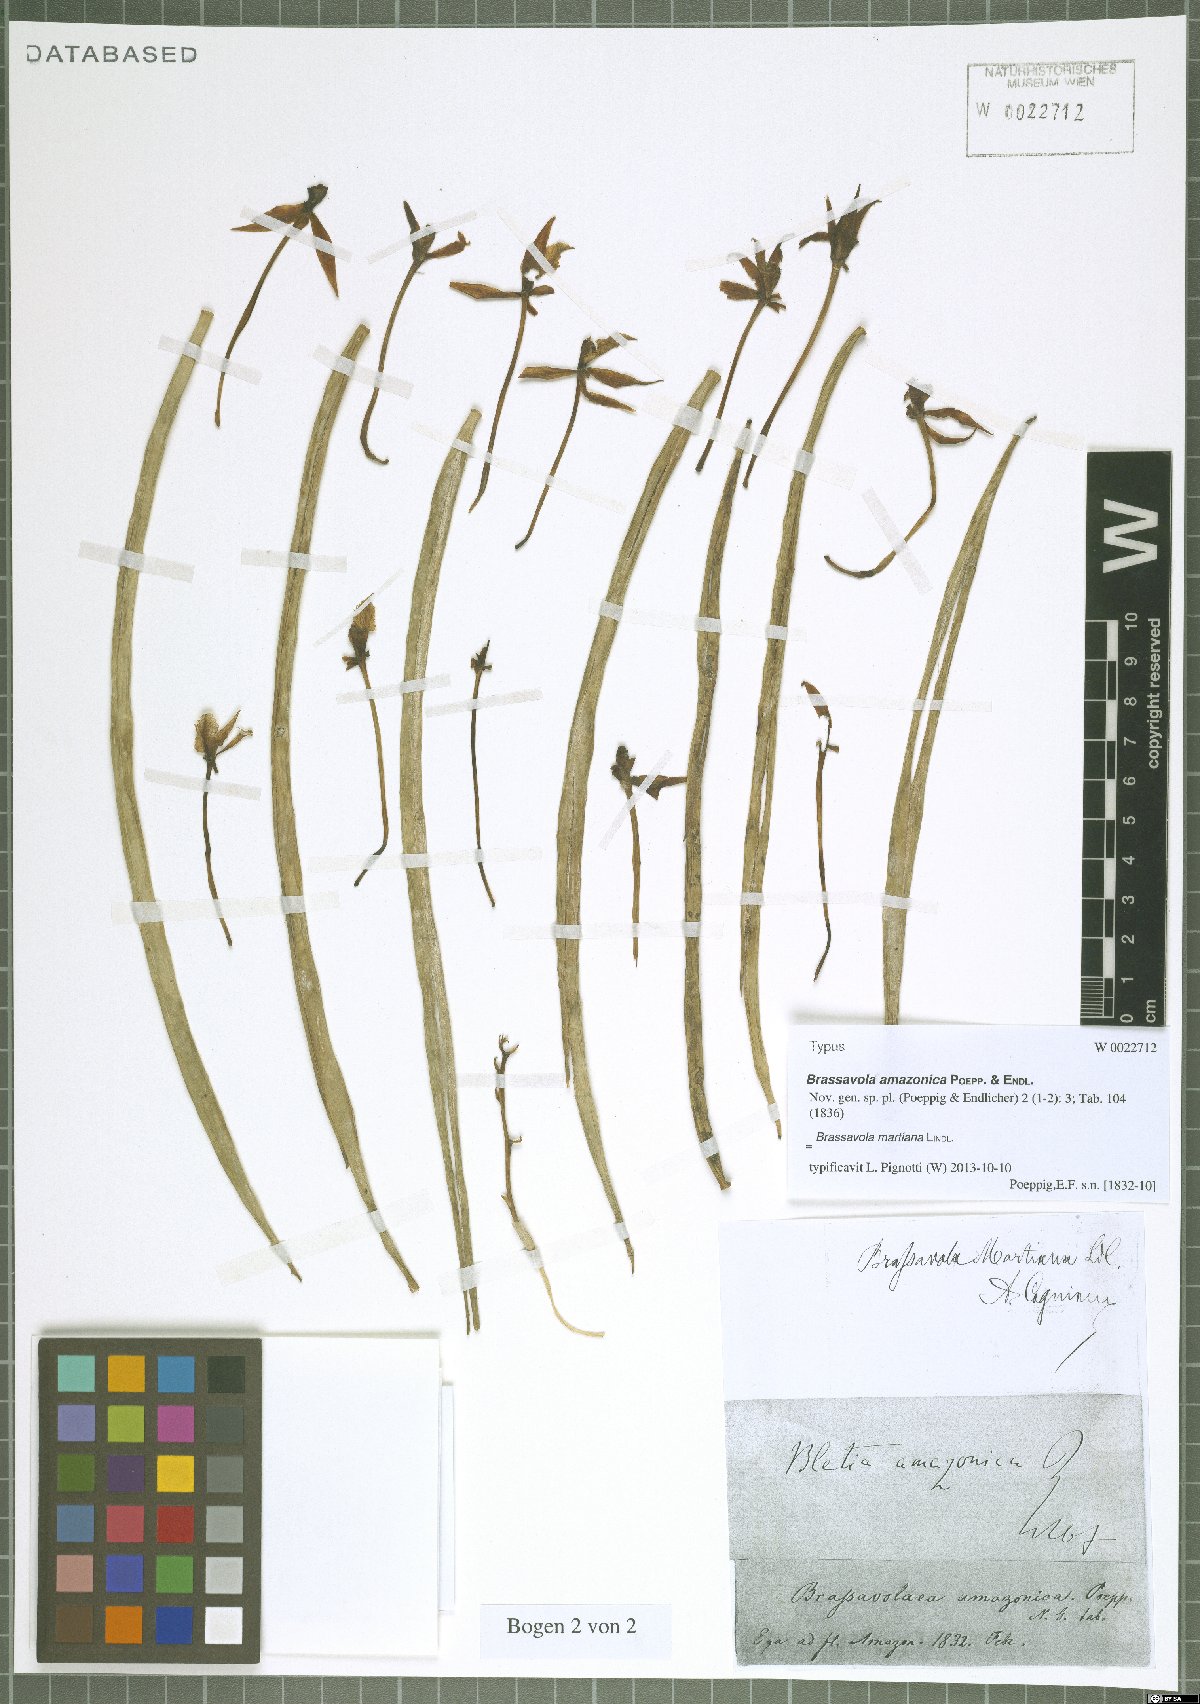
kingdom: Plantae
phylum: Tracheophyta
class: Liliopsida
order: Asparagales
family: Orchidaceae
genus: Brassavola
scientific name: Brassavola martiana
